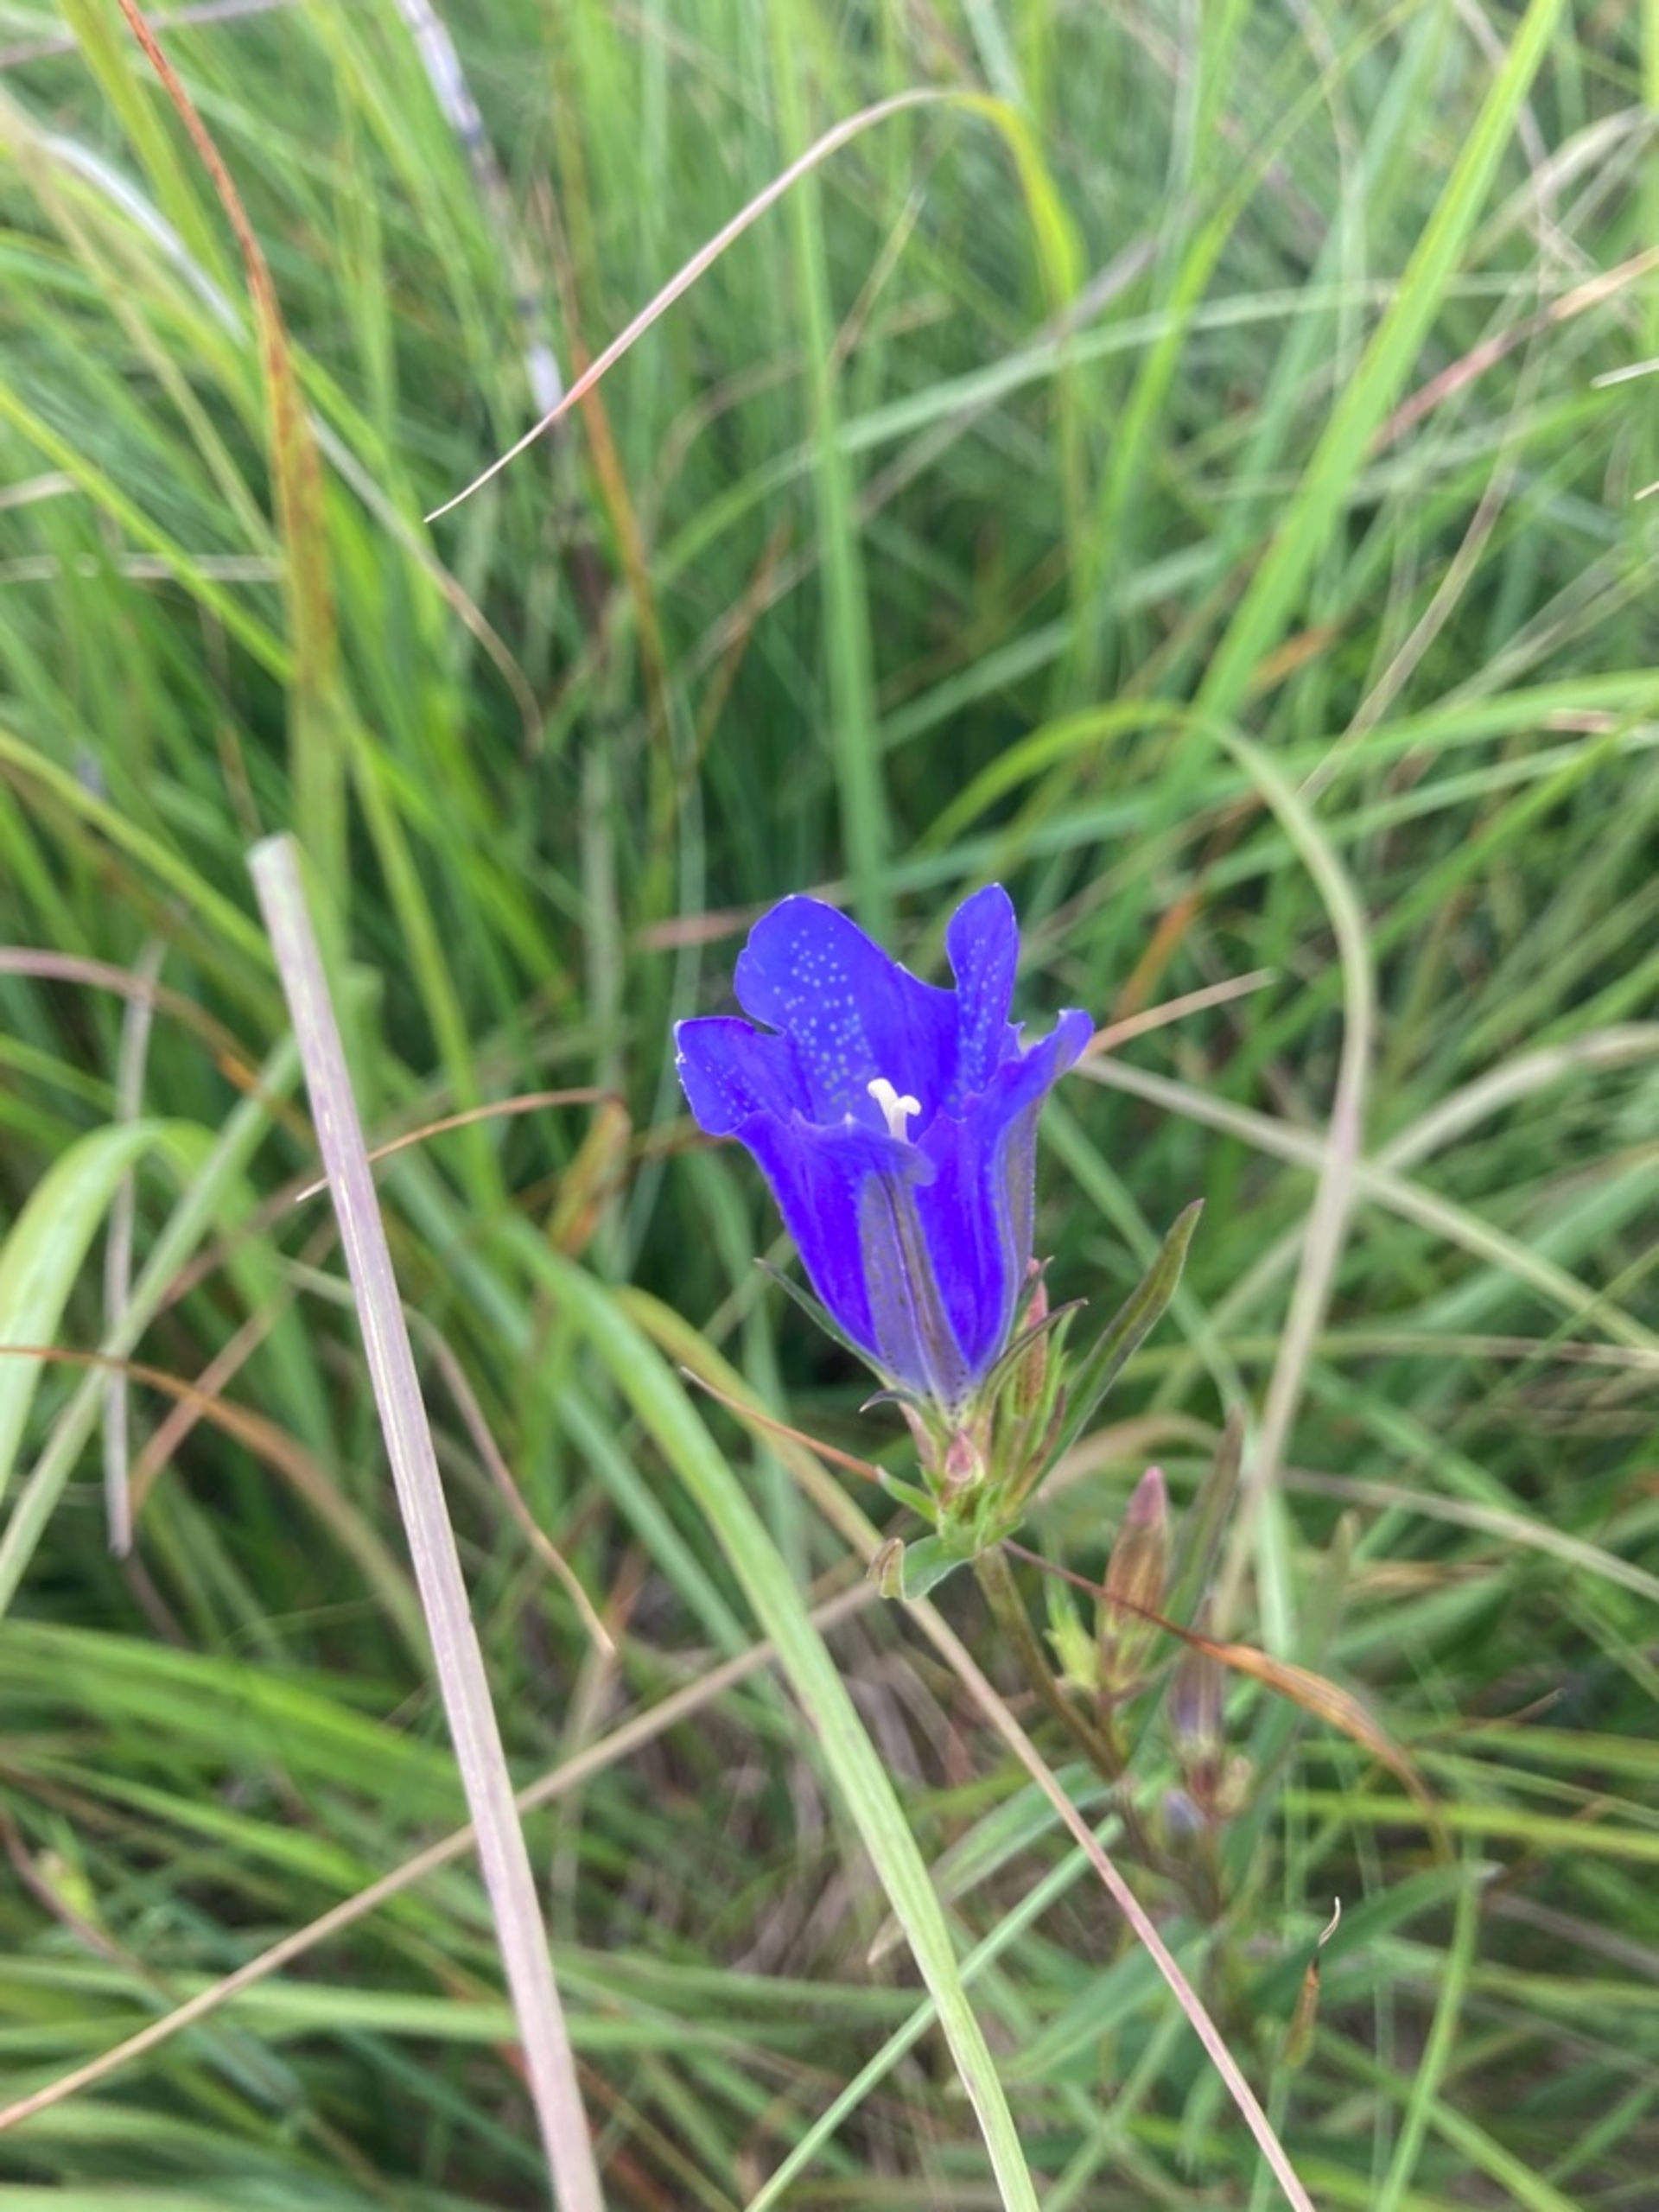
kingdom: Plantae
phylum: Tracheophyta
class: Magnoliopsida
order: Gentianales
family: Gentianaceae
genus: Gentiana
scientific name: Gentiana pneumonanthe
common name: Klokke-ensian
